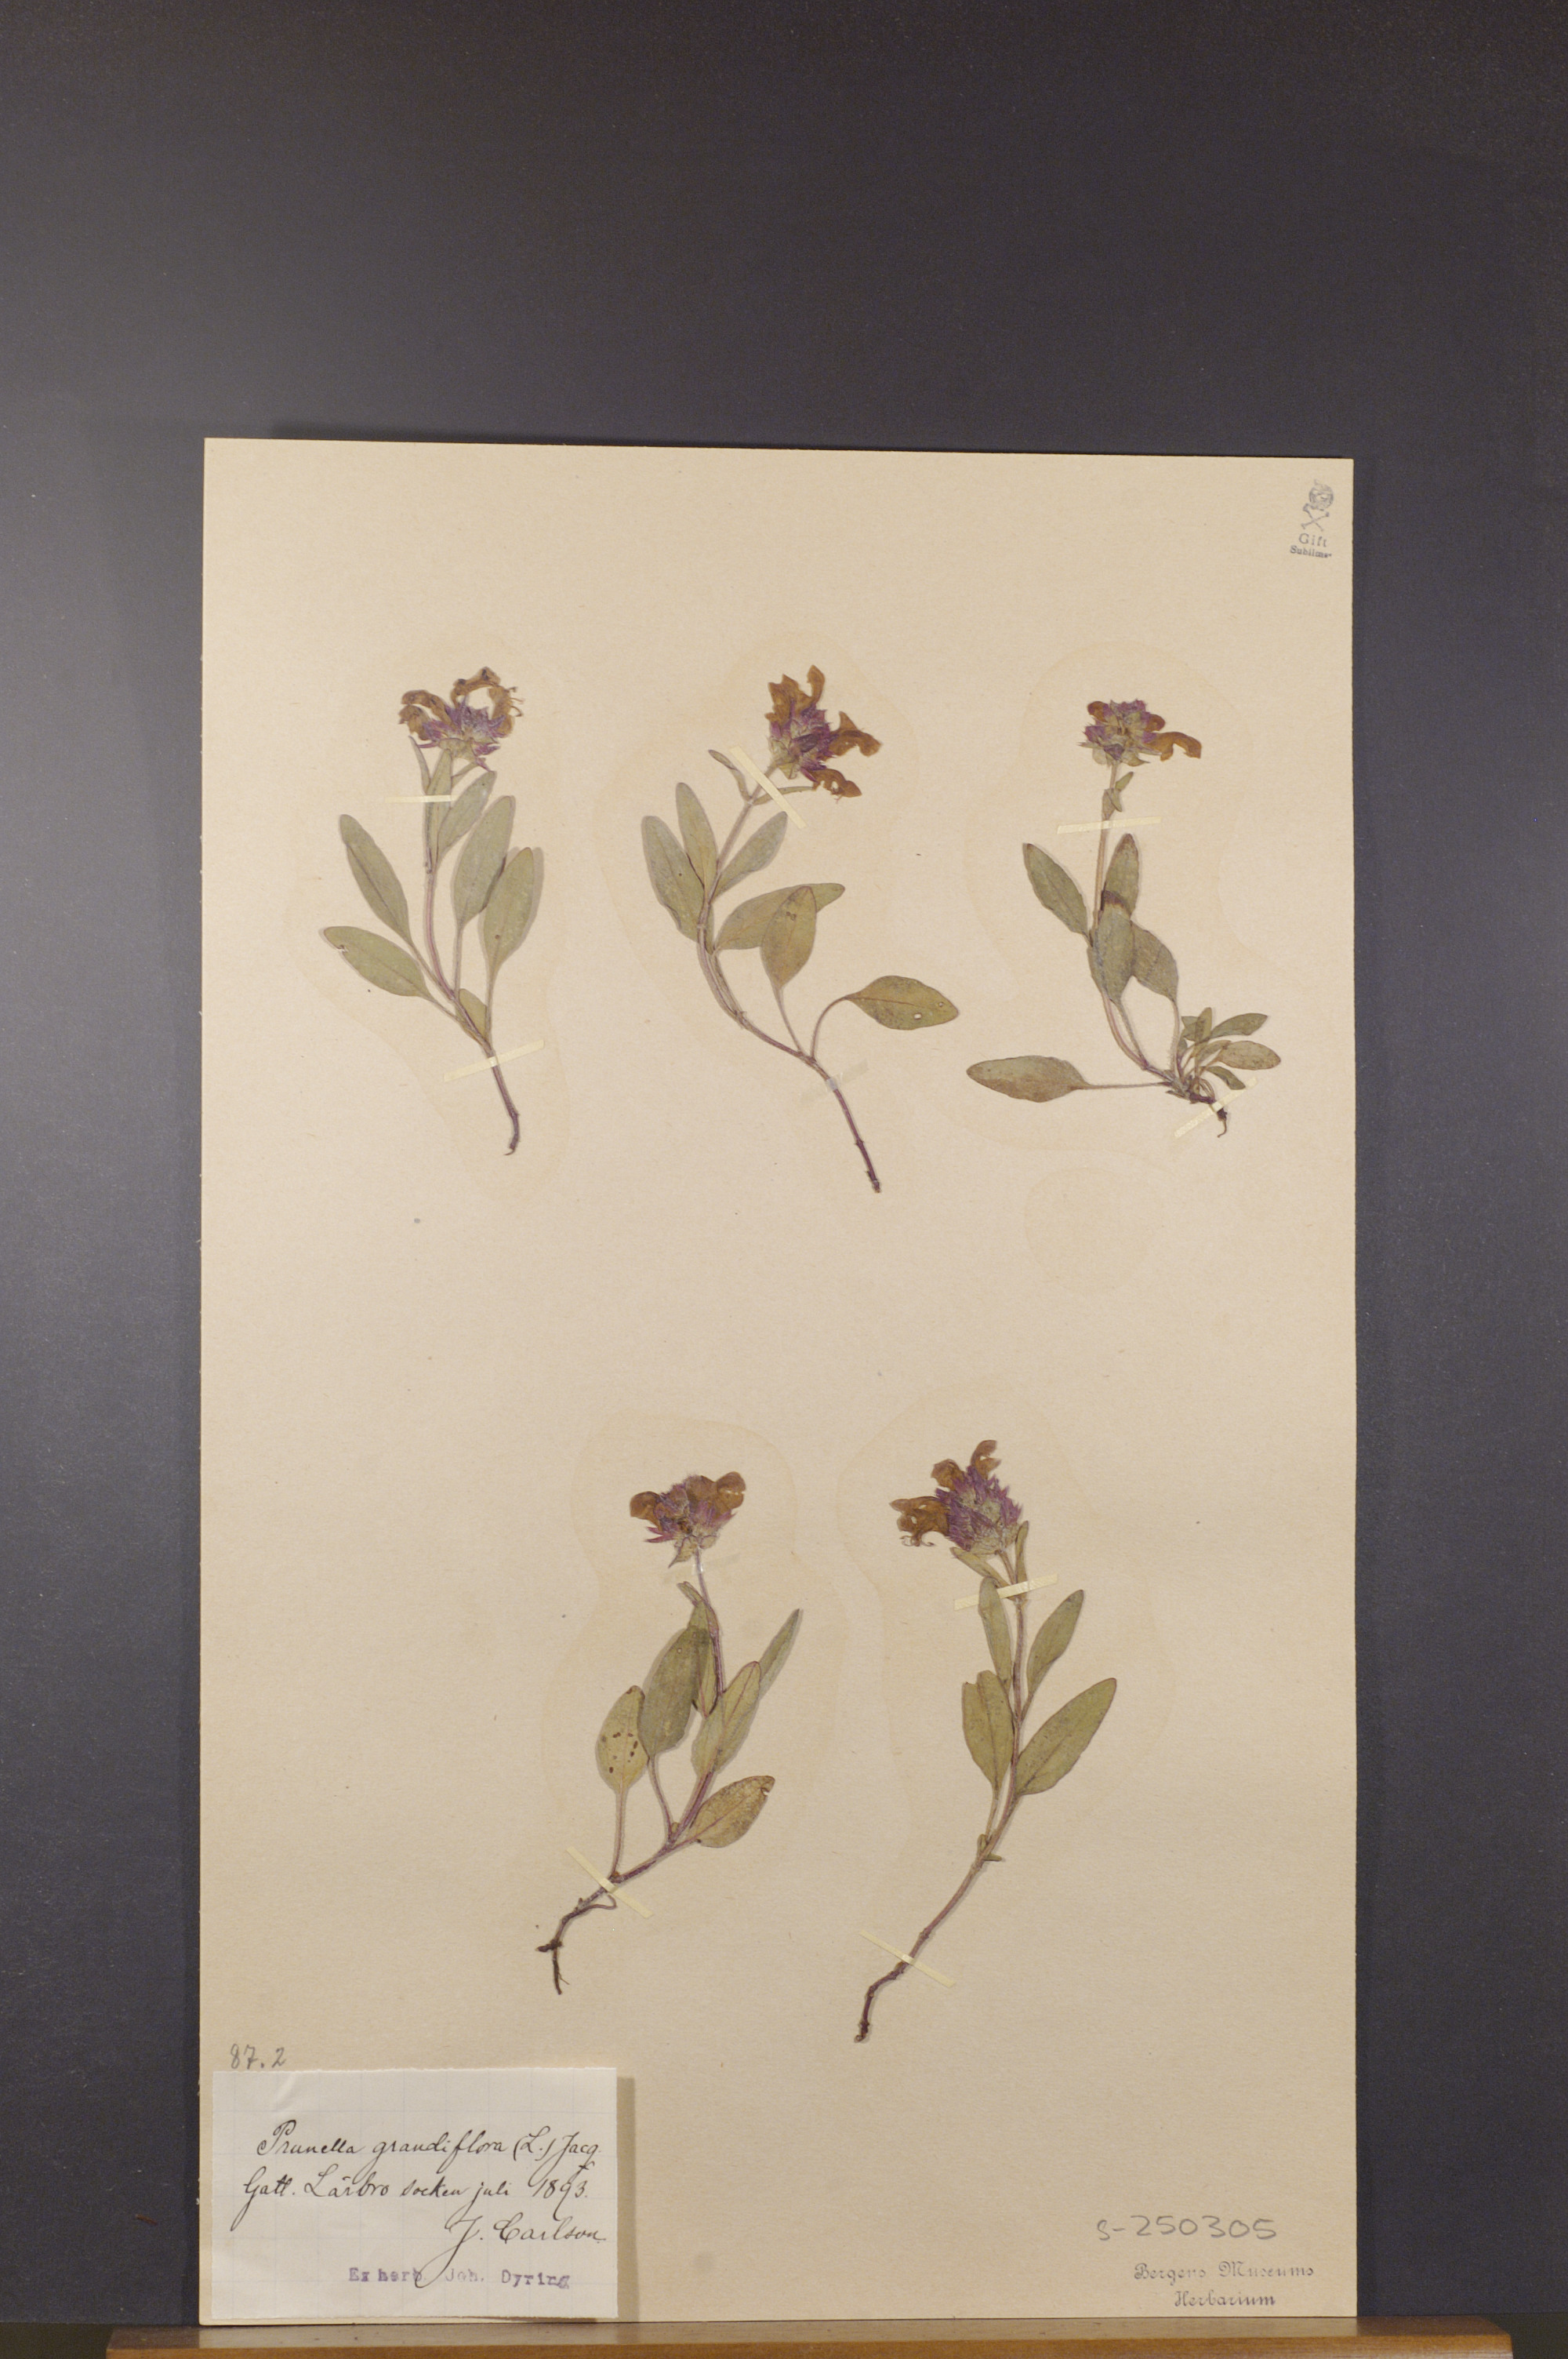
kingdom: Plantae
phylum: Tracheophyta
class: Magnoliopsida
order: Lamiales
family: Lamiaceae
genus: Prunella
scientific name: Prunella grandiflora
